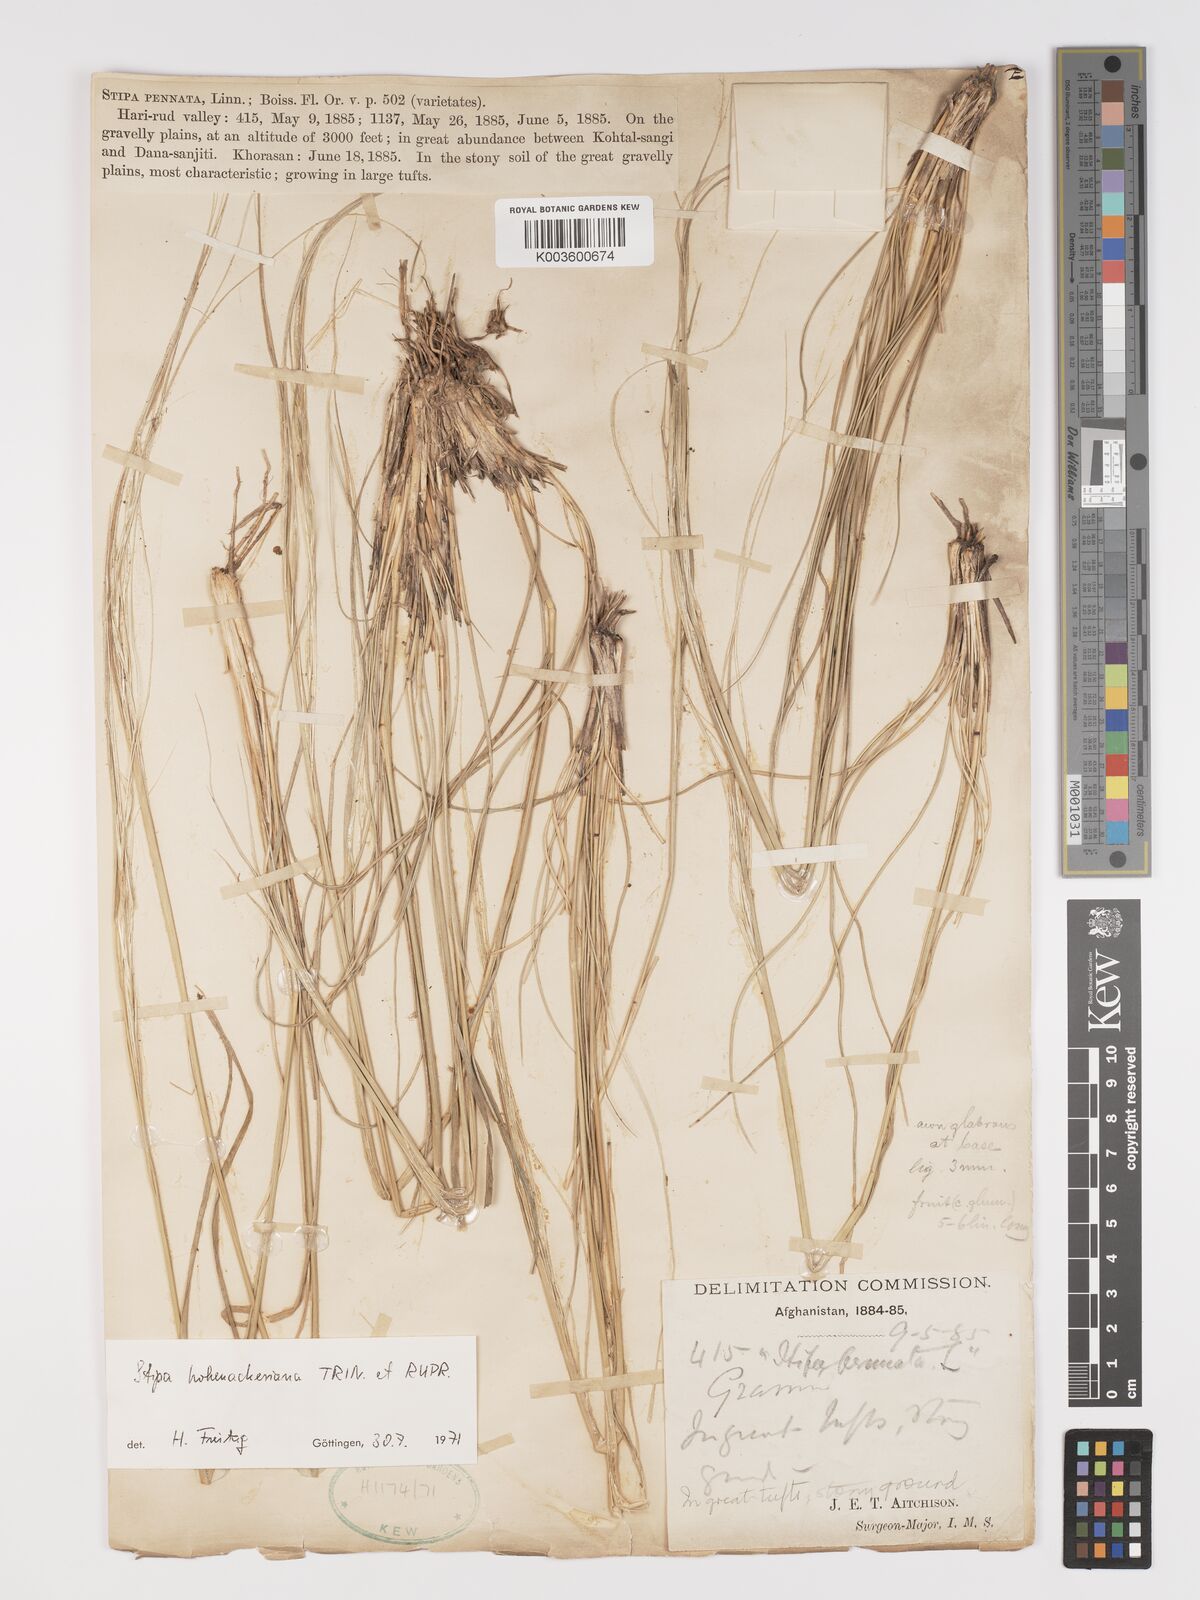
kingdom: Plantae
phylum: Tracheophyta
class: Liliopsida
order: Poales
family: Poaceae
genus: Stipa
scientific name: Stipa hohenackeriana
